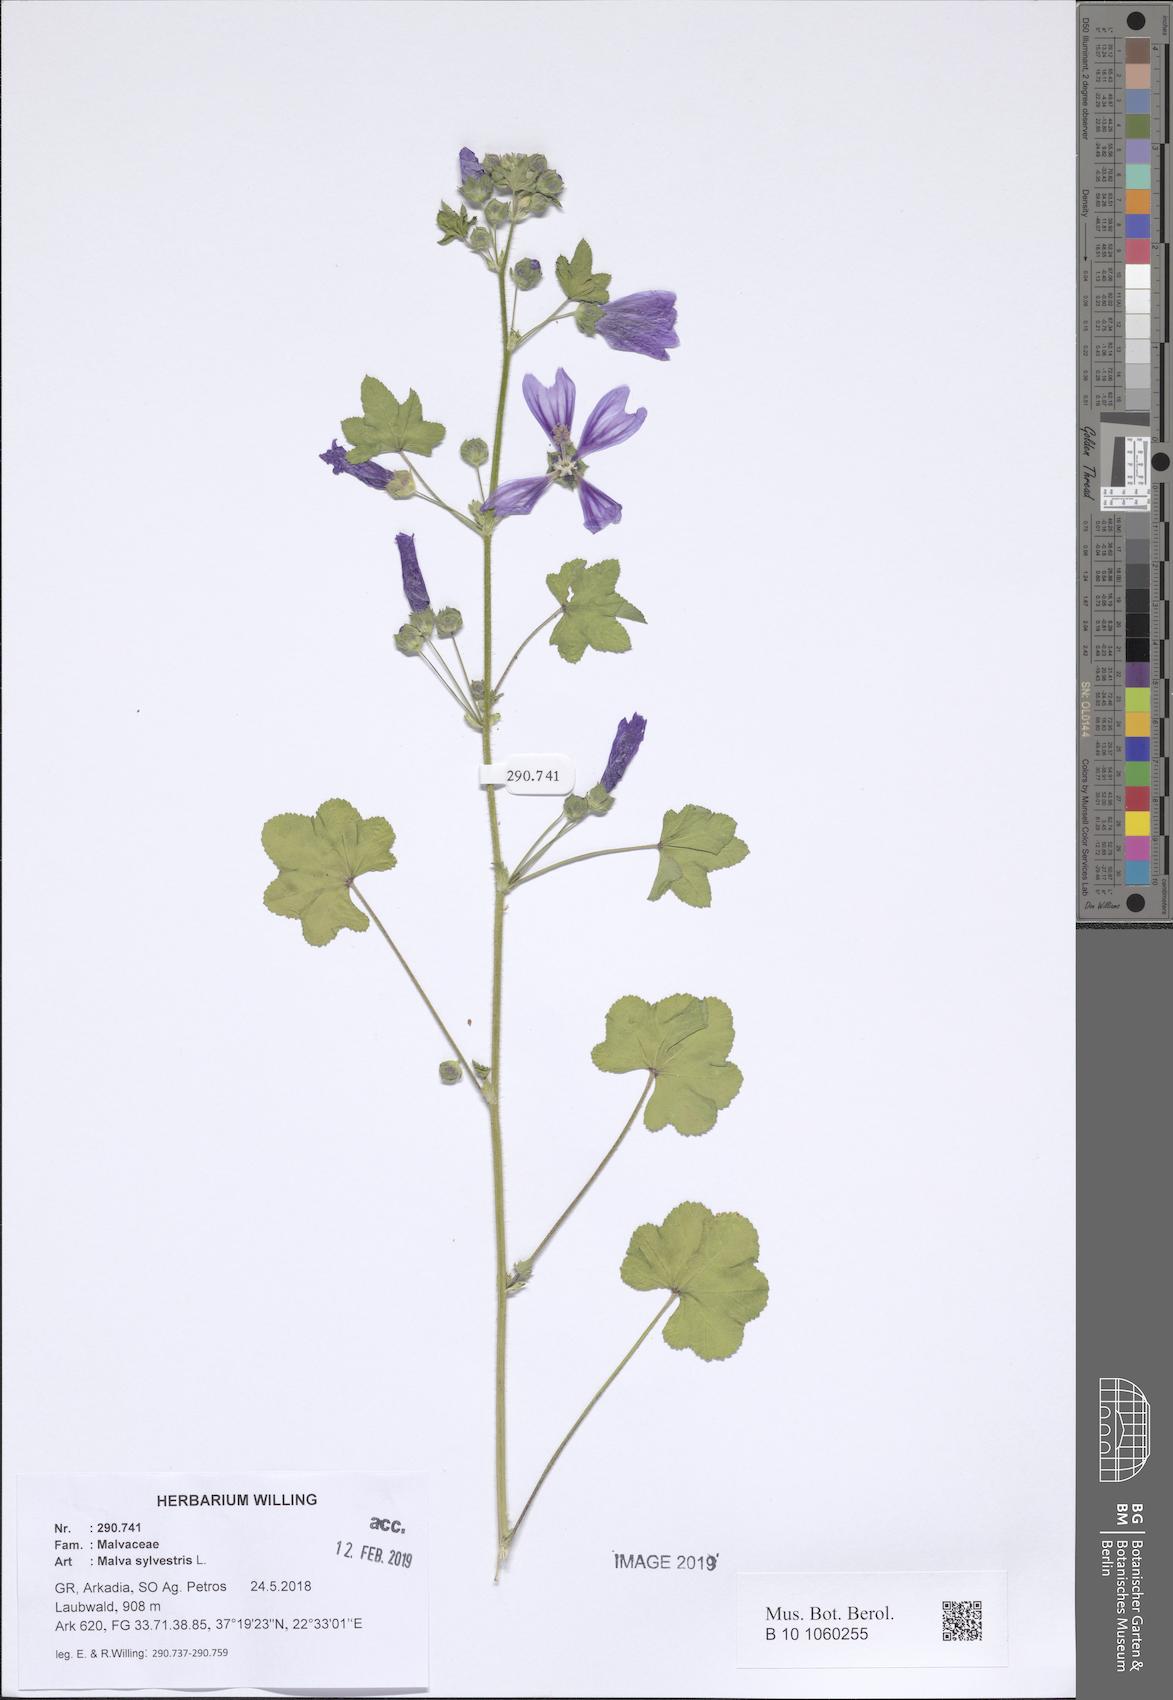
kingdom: Plantae
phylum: Tracheophyta
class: Magnoliopsida
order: Malvales
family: Malvaceae
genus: Malva
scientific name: Malva sylvestris
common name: Common mallow
